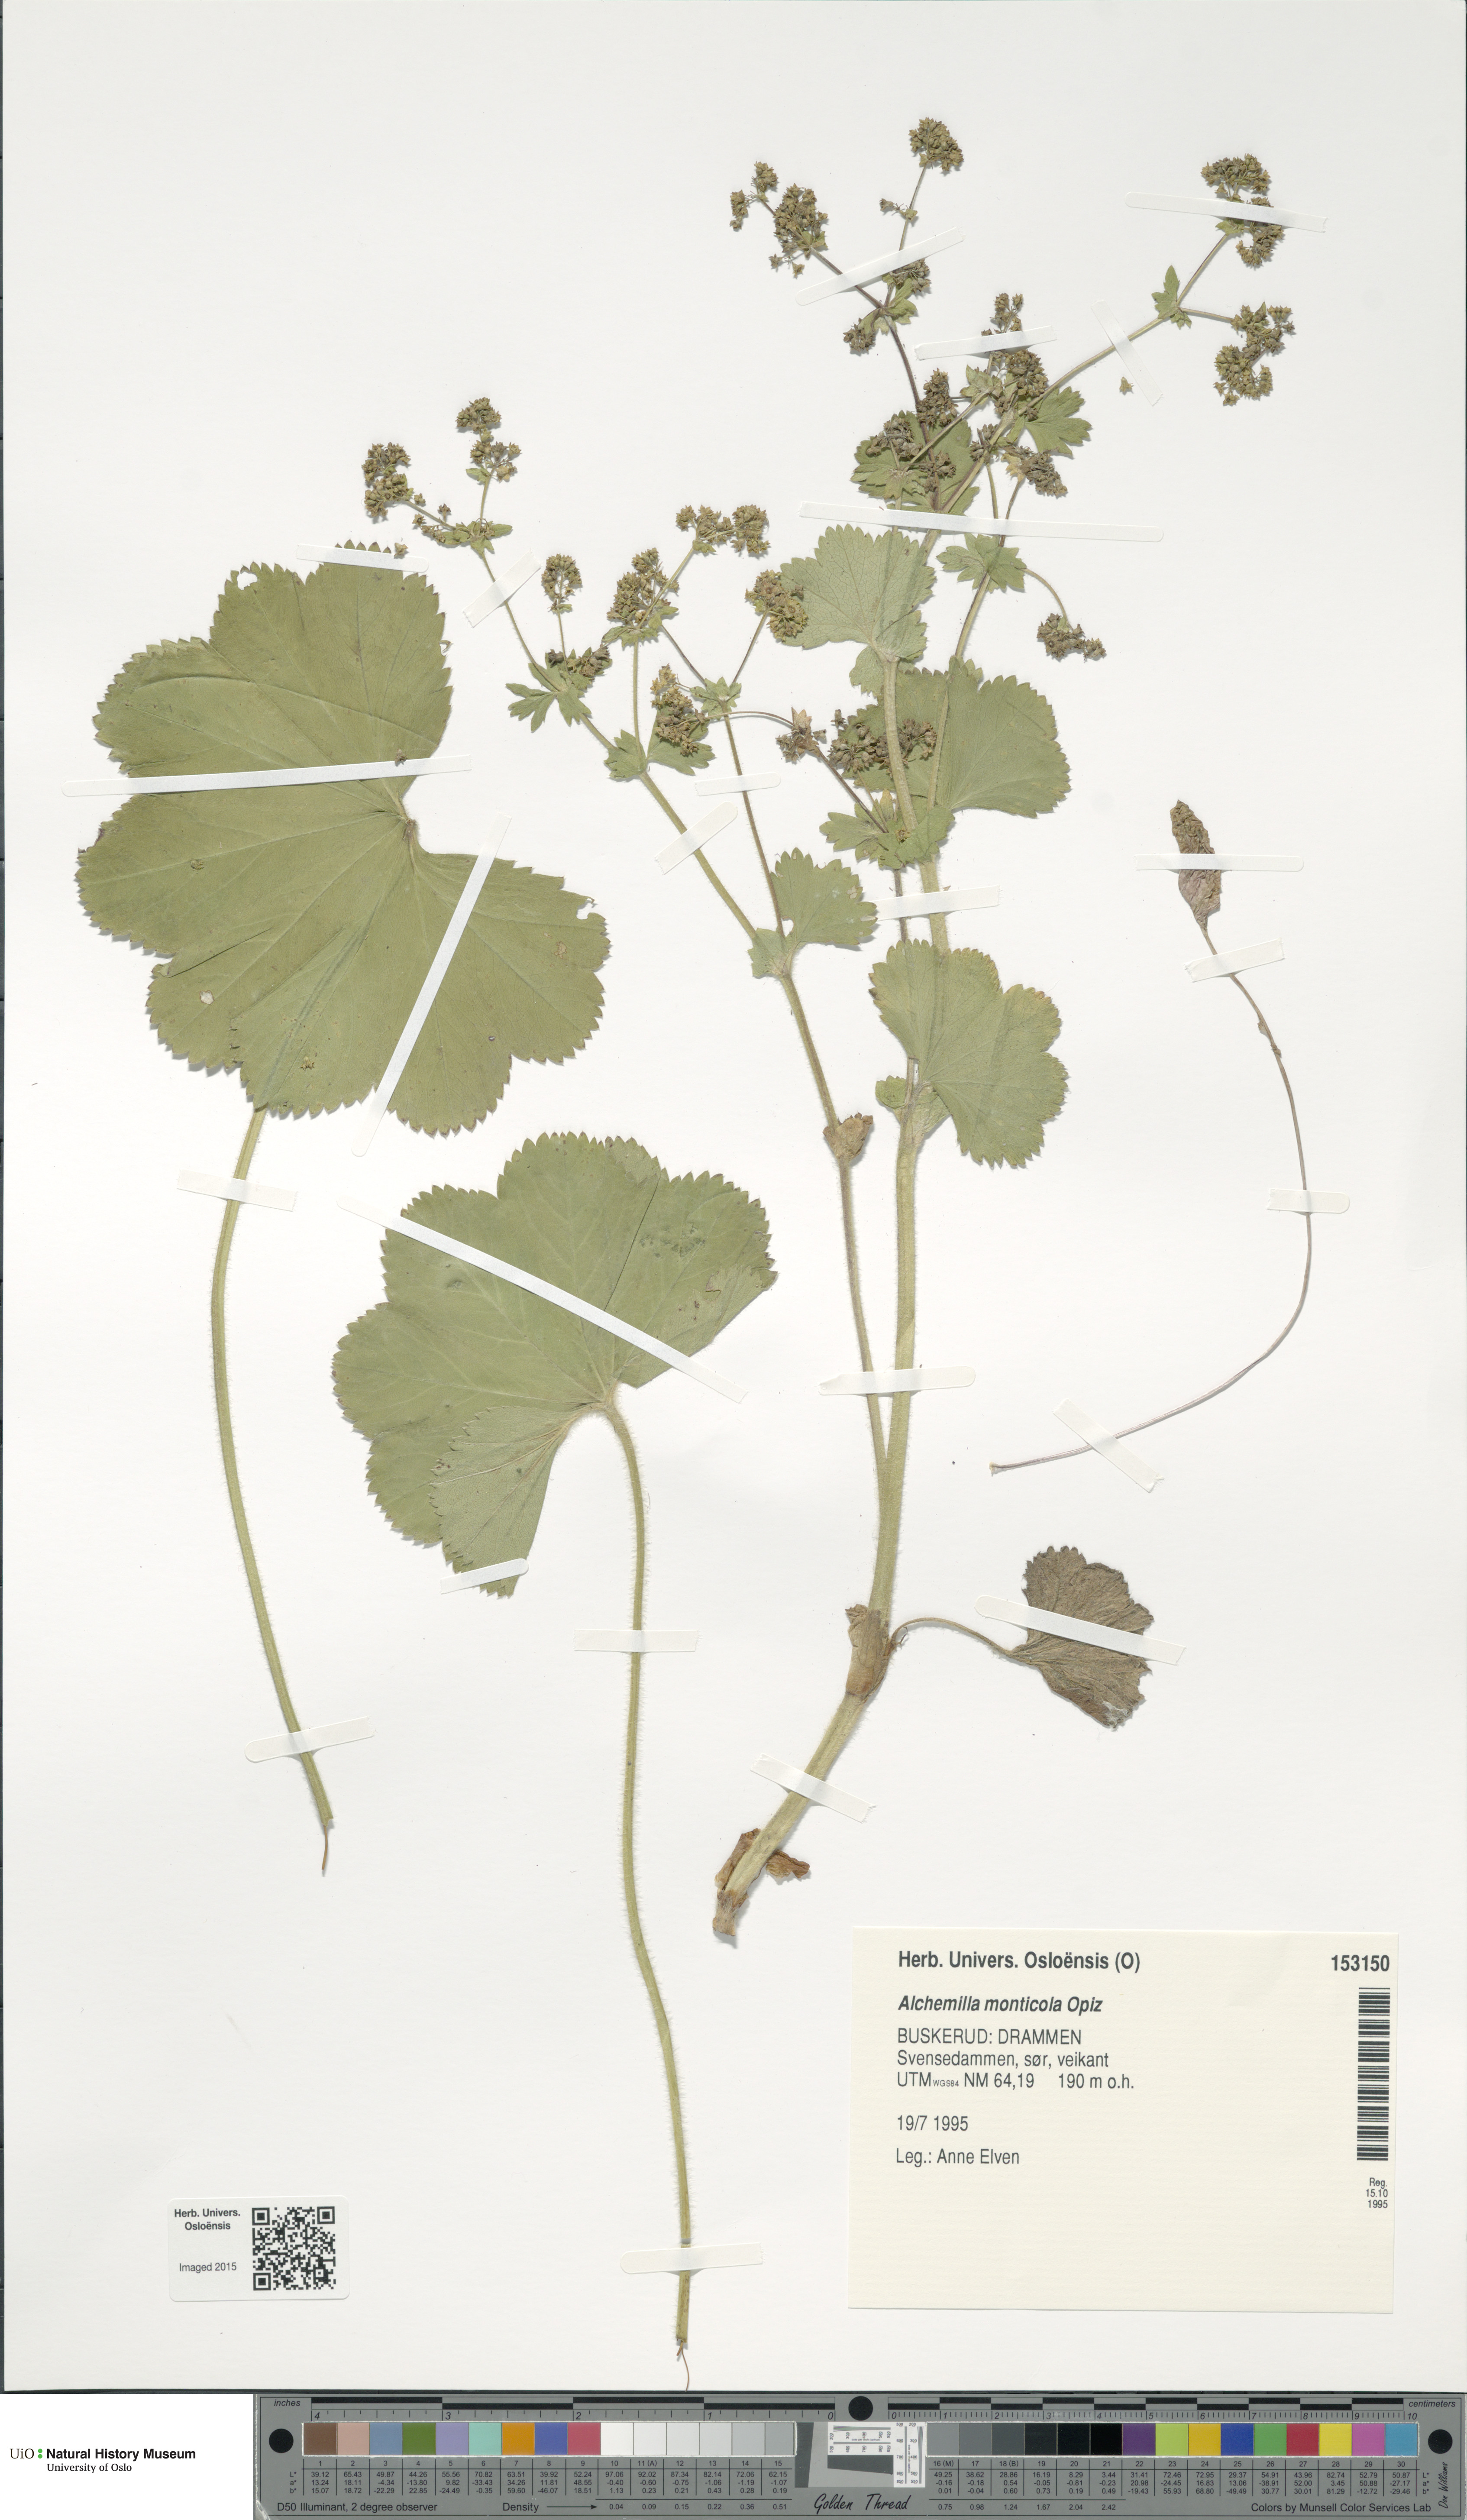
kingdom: Plantae
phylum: Tracheophyta
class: Magnoliopsida
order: Rosales
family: Rosaceae
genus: Alchemilla
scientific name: Alchemilla monticola
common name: Hairy lady's mantle
